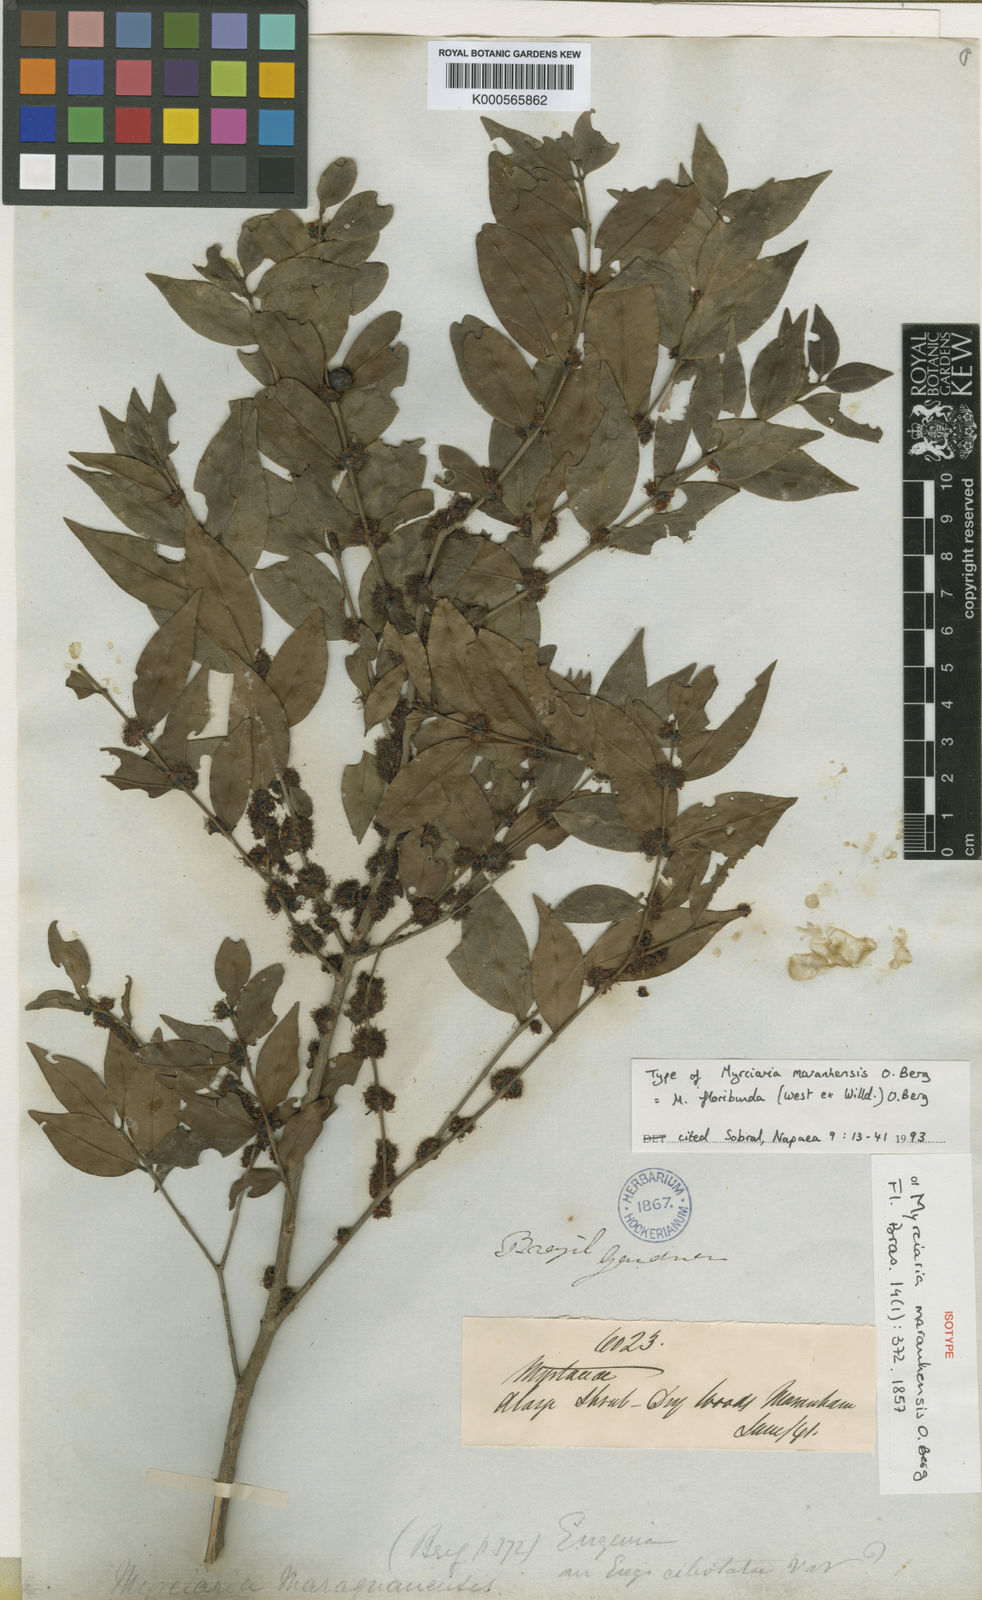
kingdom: Plantae
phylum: Tracheophyta
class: Magnoliopsida
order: Myrtales
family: Myrtaceae
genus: Myrciaria
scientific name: Myrciaria floribunda
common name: Guavaberry
